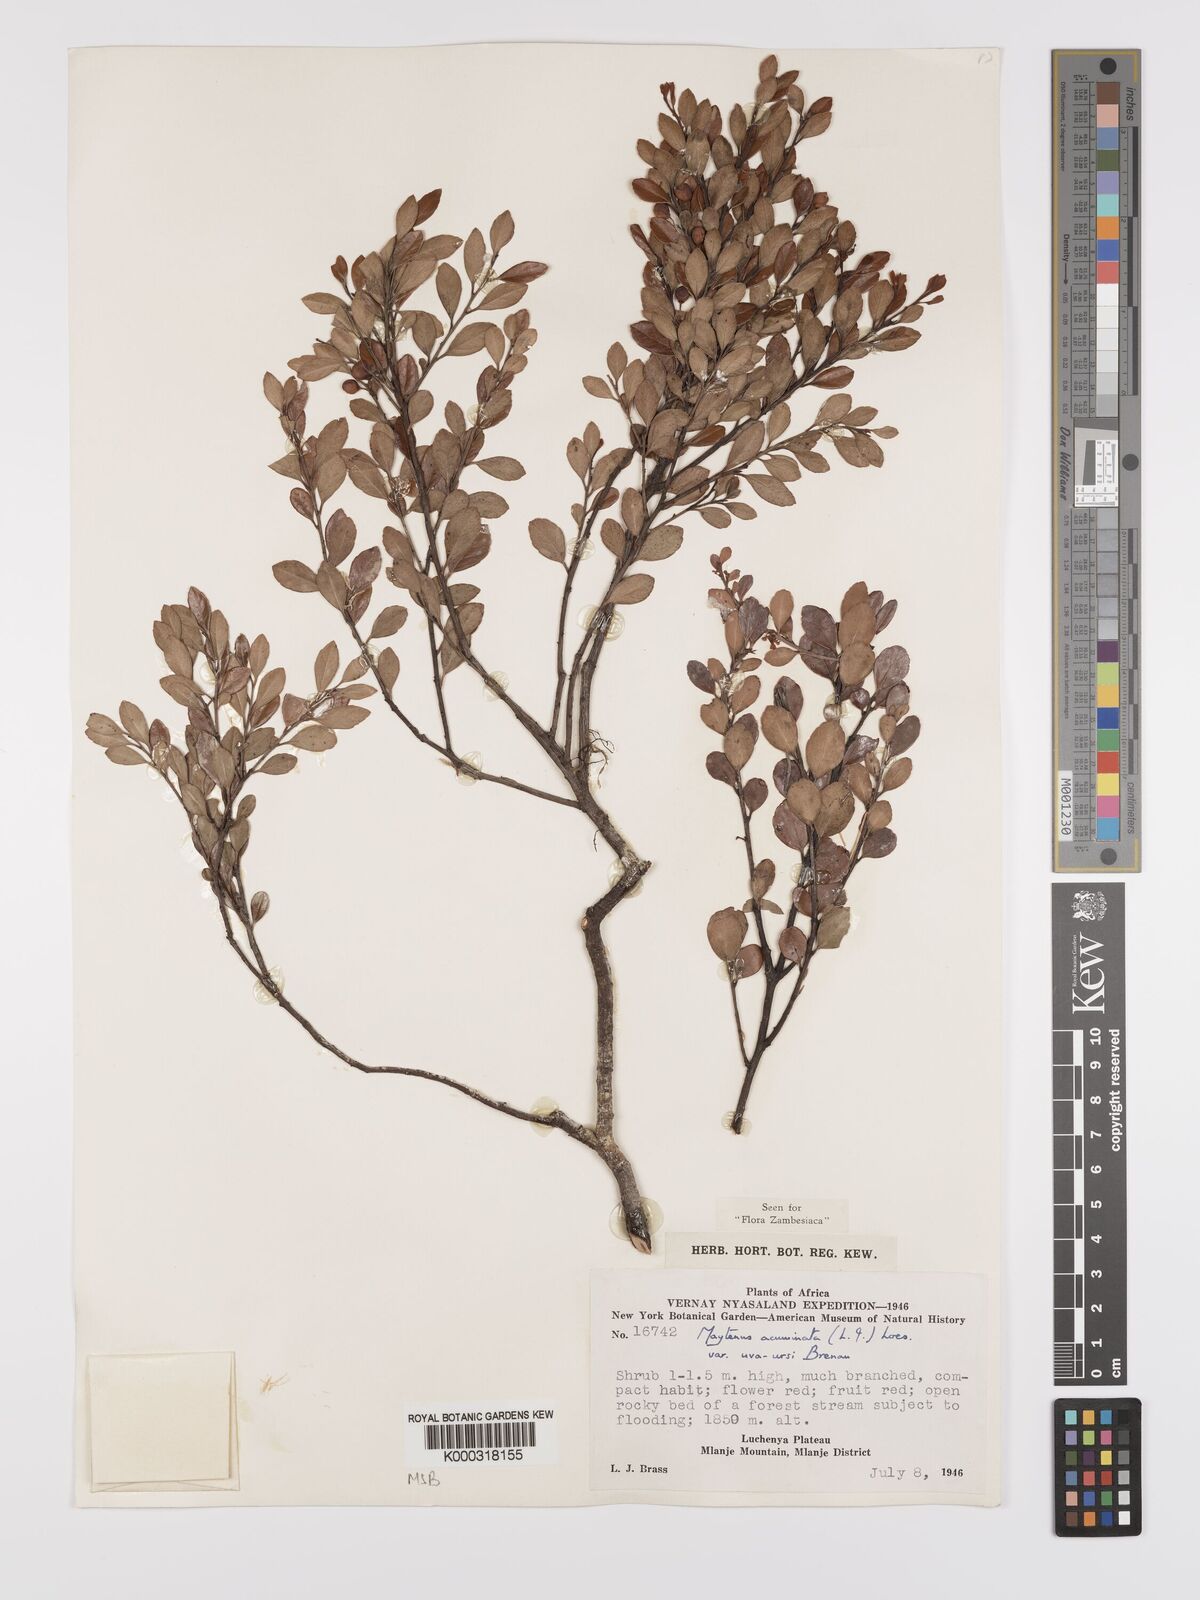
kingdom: Plantae
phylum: Tracheophyta
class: Magnoliopsida
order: Celastrales
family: Celastraceae
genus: Maytenus
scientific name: Maytenus
